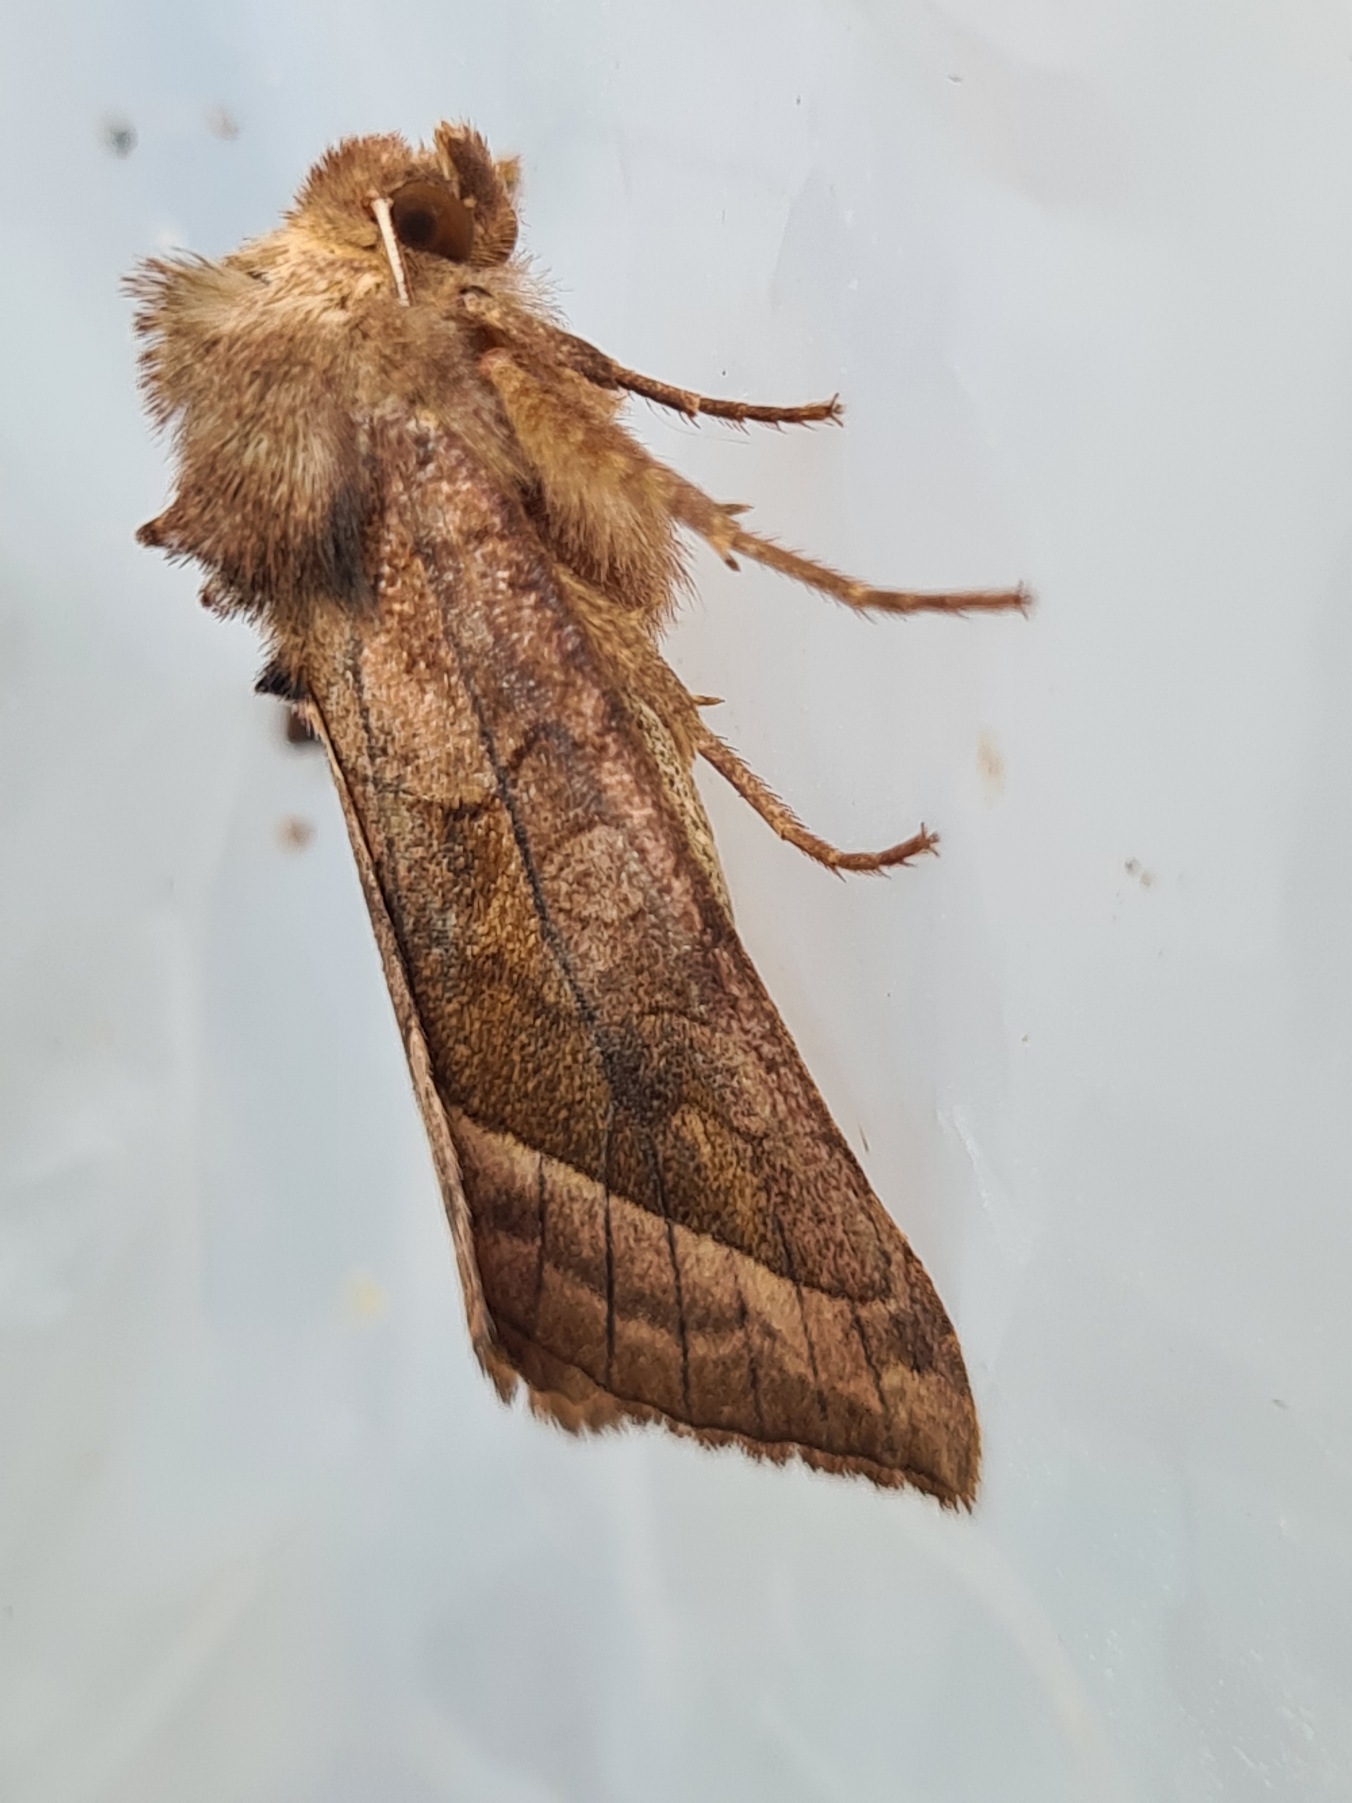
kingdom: Animalia
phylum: Arthropoda
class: Insecta
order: Lepidoptera
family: Noctuidae
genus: Hydraecia
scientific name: Hydraecia micacea
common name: Kartoffelborer
